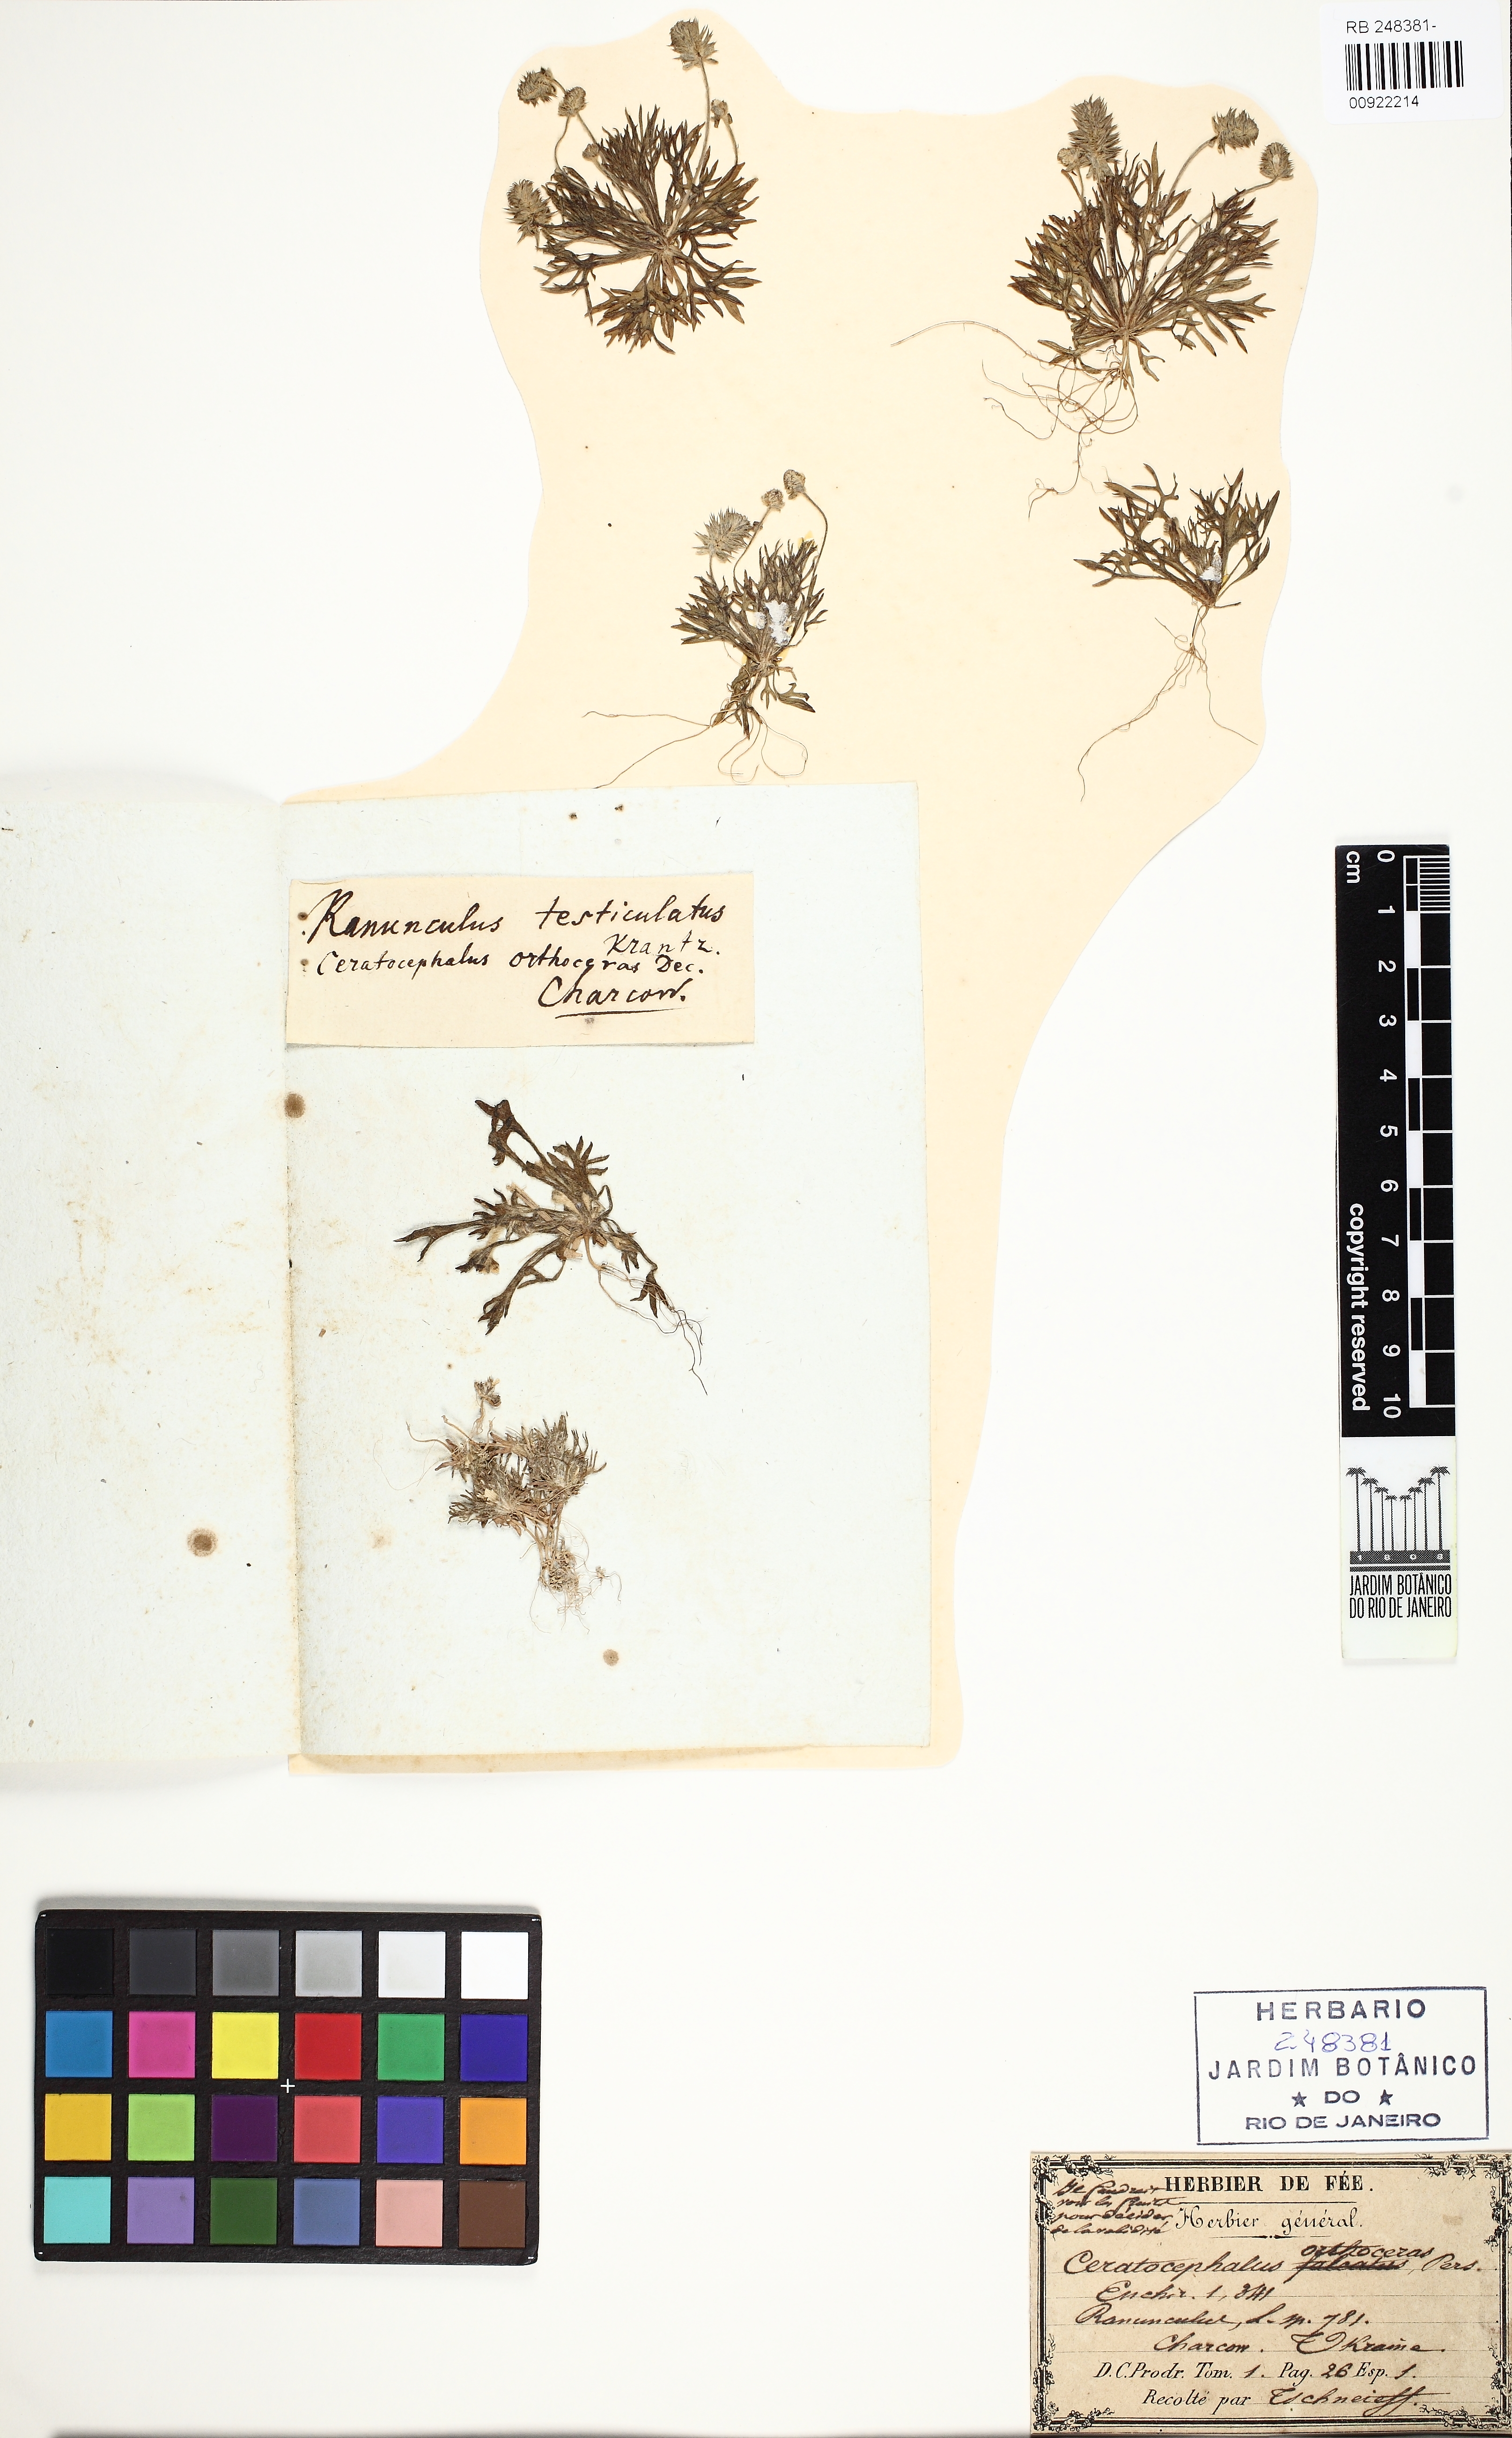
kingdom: Plantae
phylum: Tracheophyta
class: Magnoliopsida
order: Asterales
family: Asteraceae
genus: Spilanthes
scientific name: Spilanthes Ceratocephalus testiculatus
